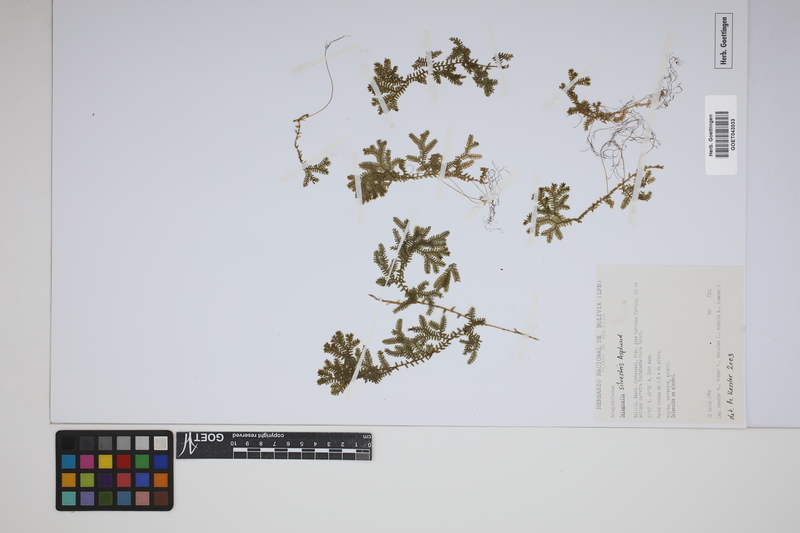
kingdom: Plantae
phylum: Tracheophyta
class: Lycopodiopsida
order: Selaginellales
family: Selaginellaceae
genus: Selaginella
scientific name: Selaginella silvestris
